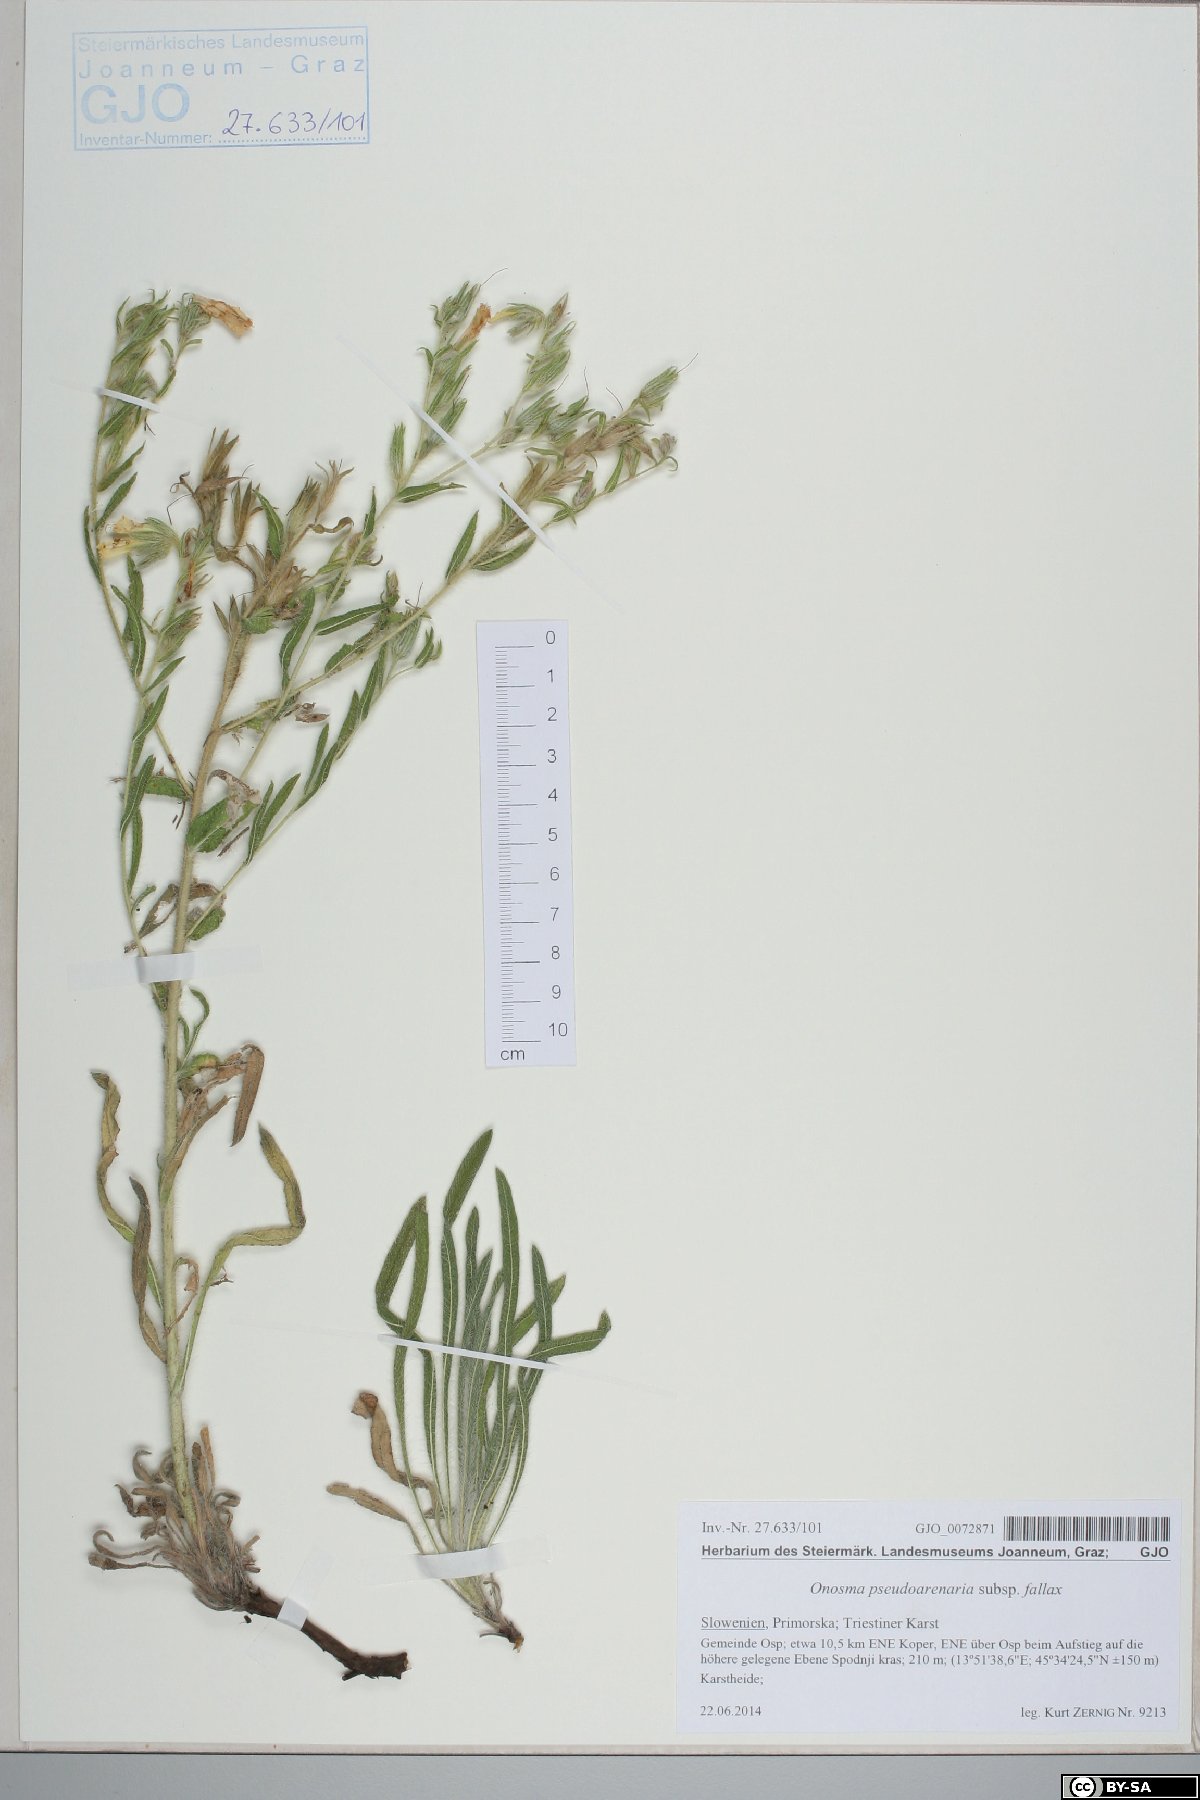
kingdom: Plantae
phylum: Tracheophyta
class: Magnoliopsida
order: Boraginales
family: Boraginaceae
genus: Onosma
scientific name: Onosma pseudoarenaria
